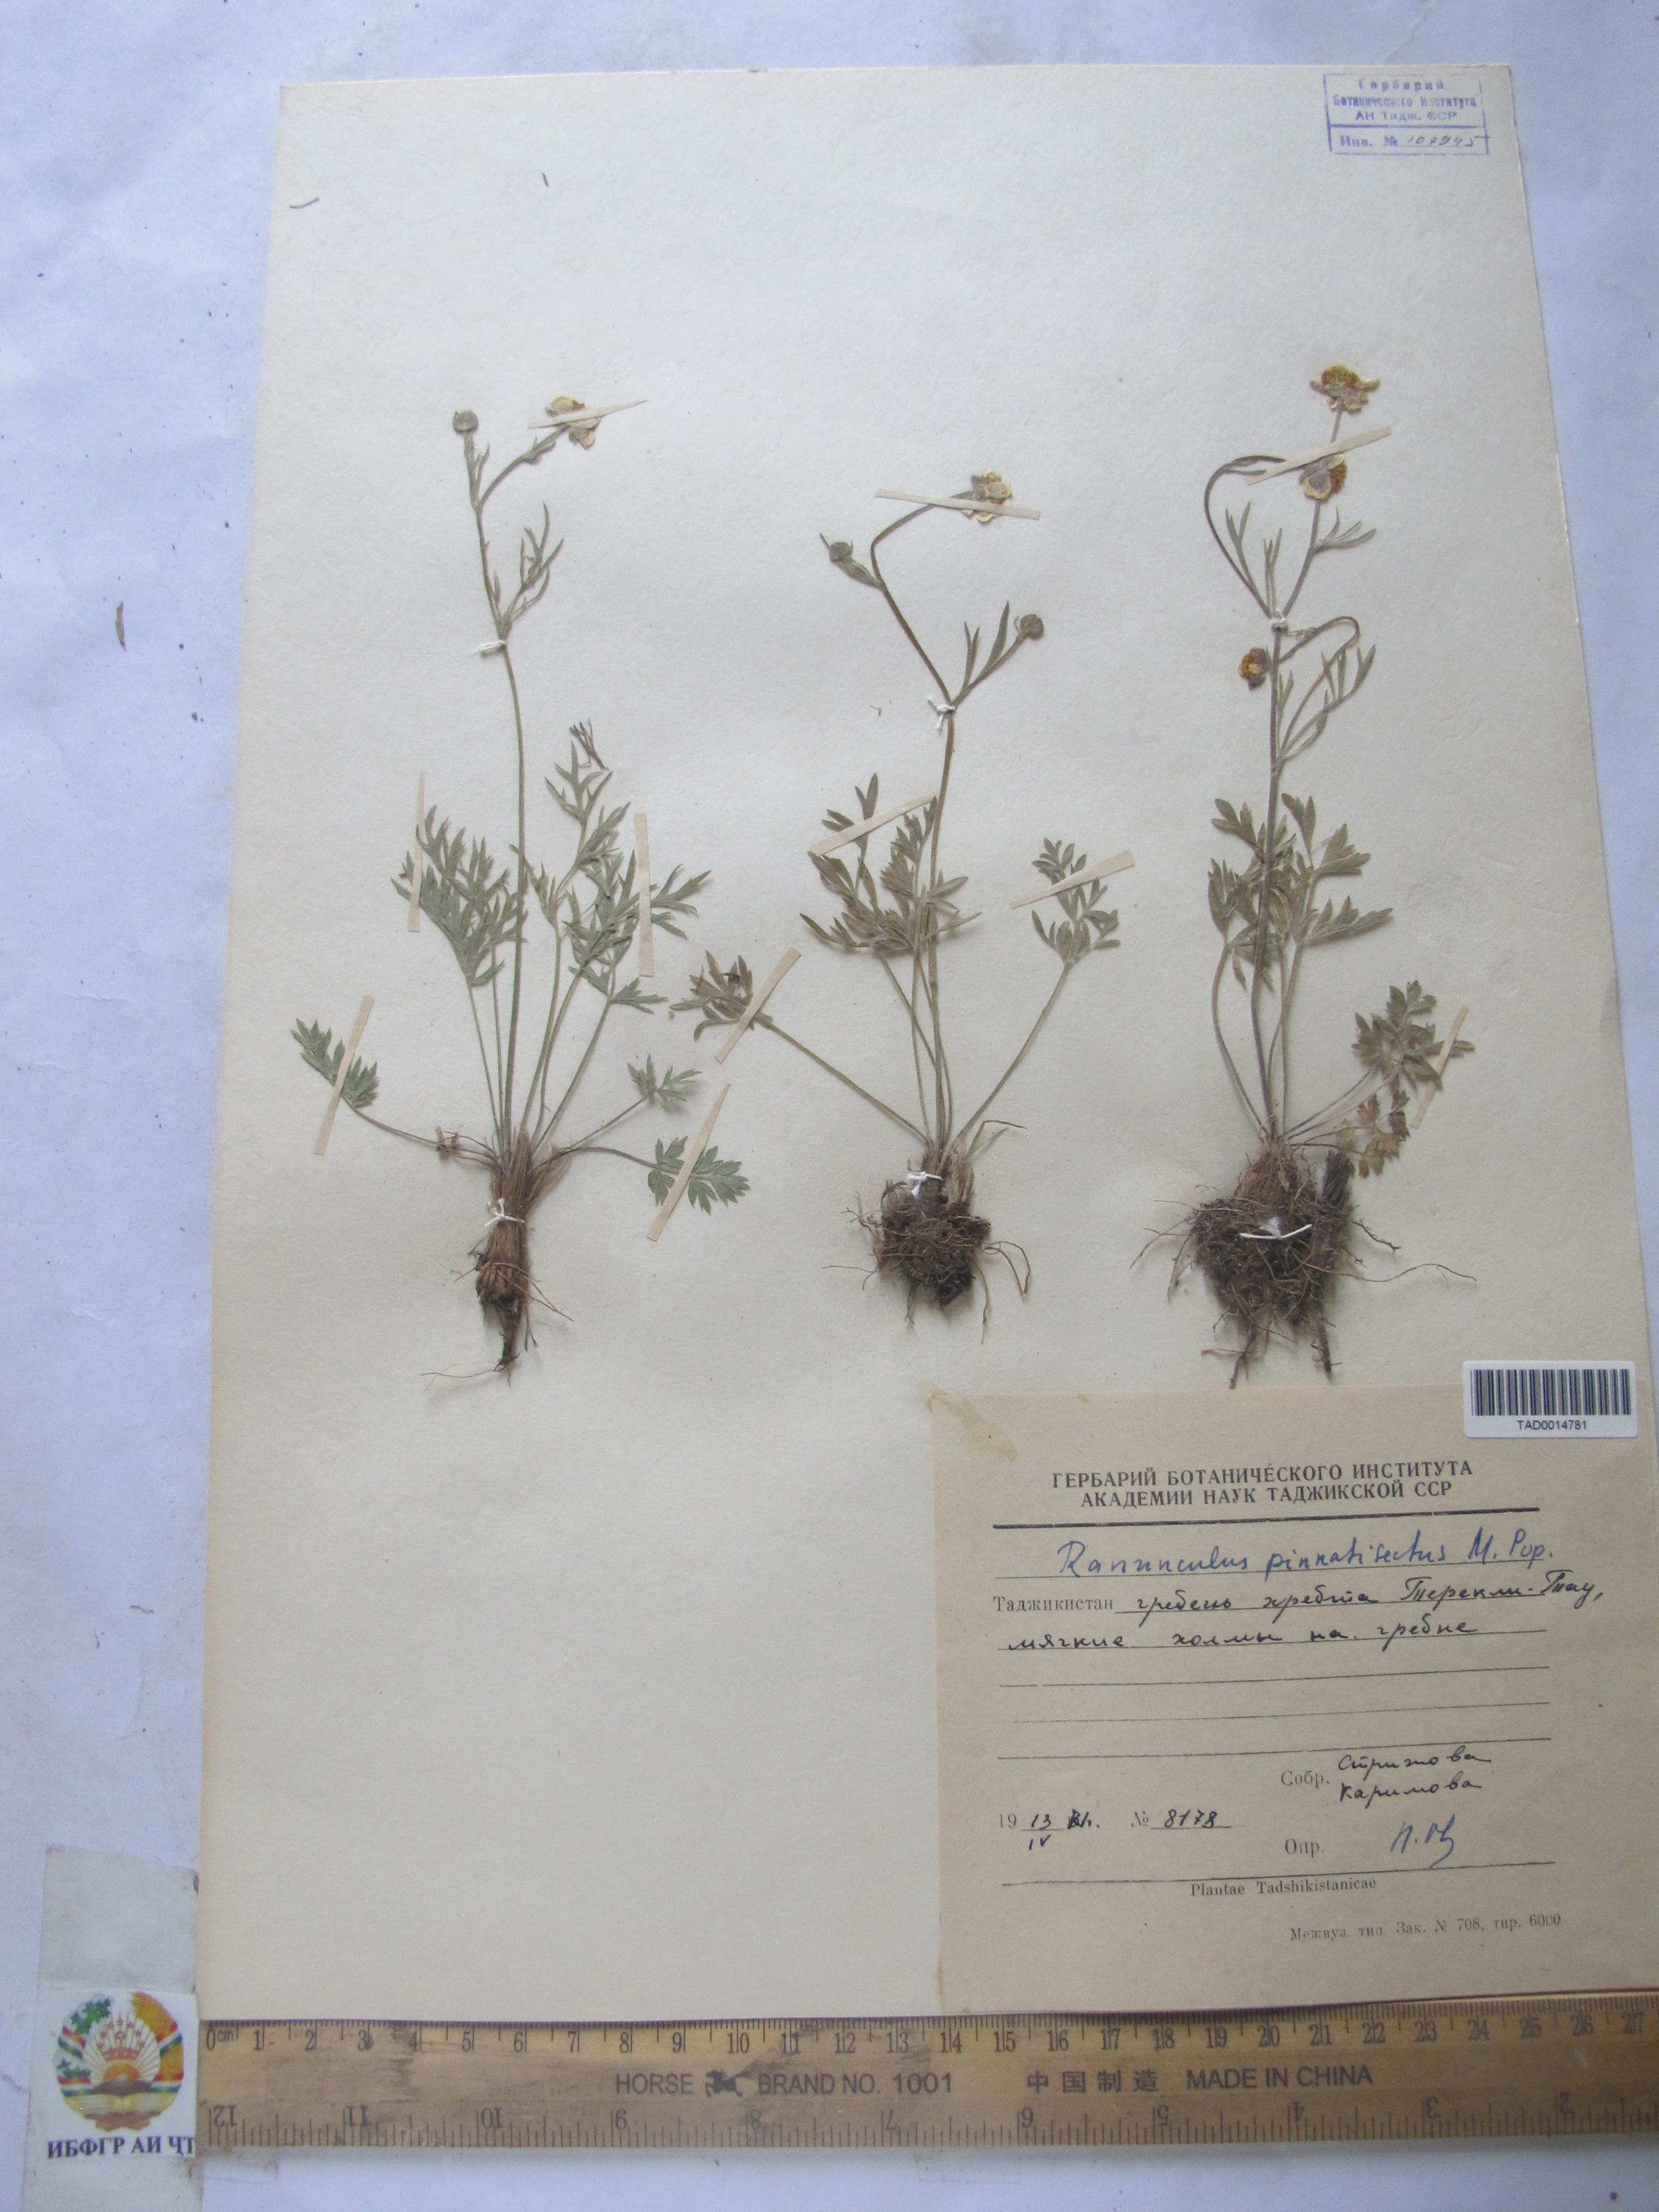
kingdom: Plantae
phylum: Tracheophyta
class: Magnoliopsida
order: Ranunculales
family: Ranunculaceae
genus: Ranunculus
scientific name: Ranunculus pinnatisectus
